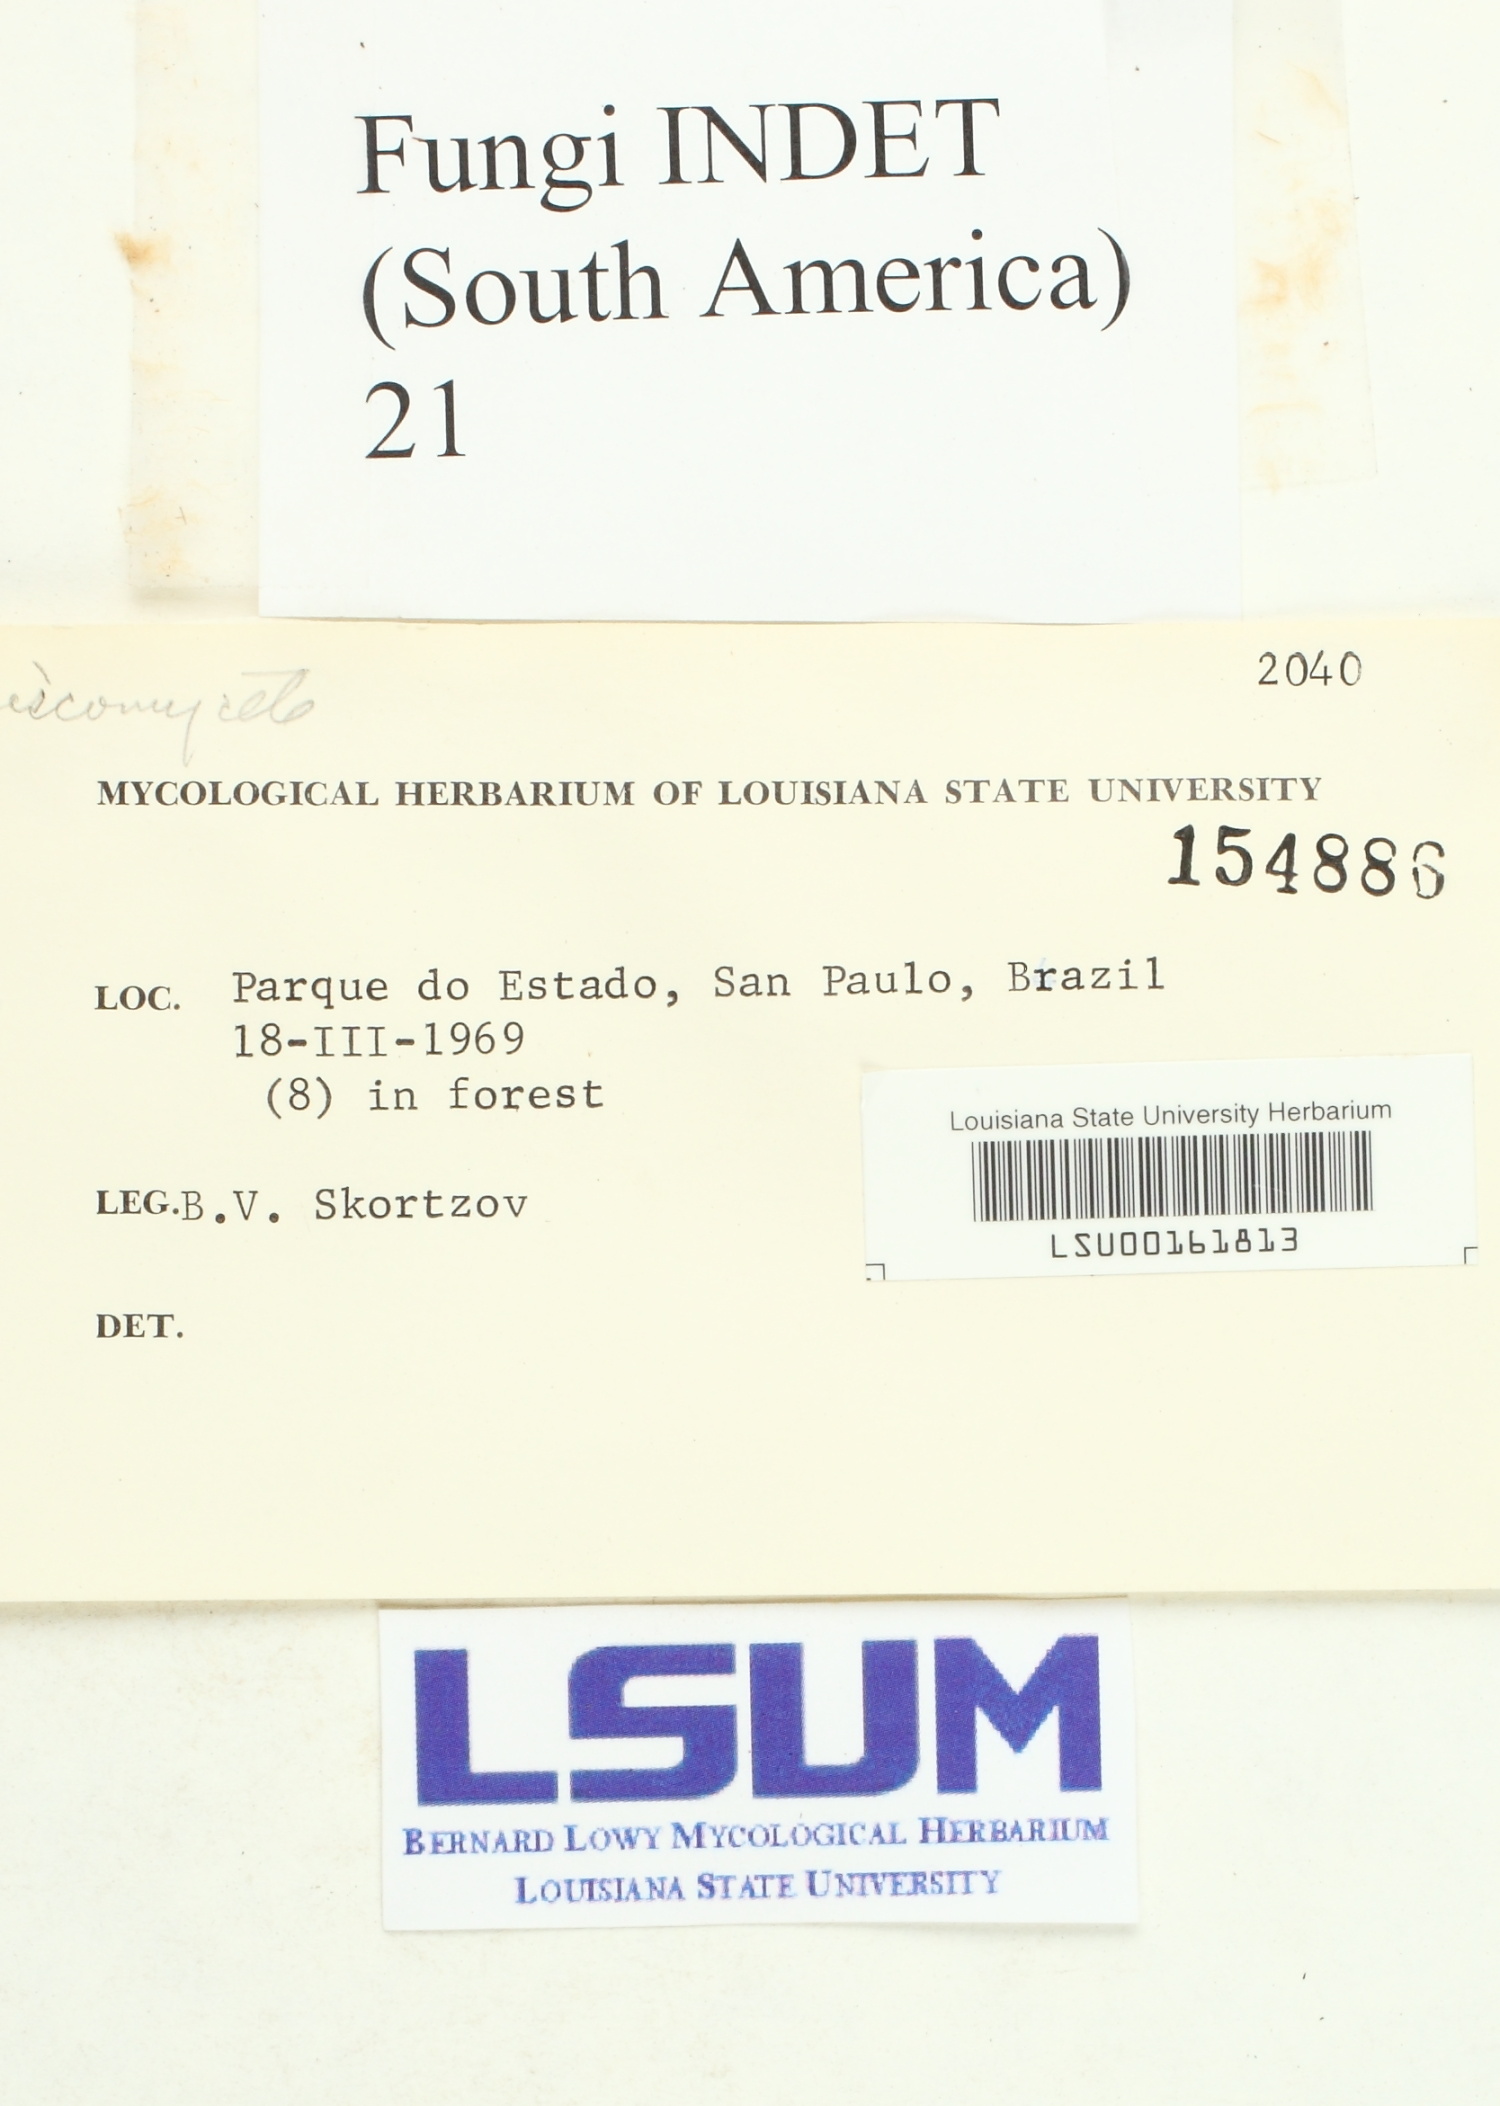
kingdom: Fungi
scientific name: Fungi
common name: Fungi
